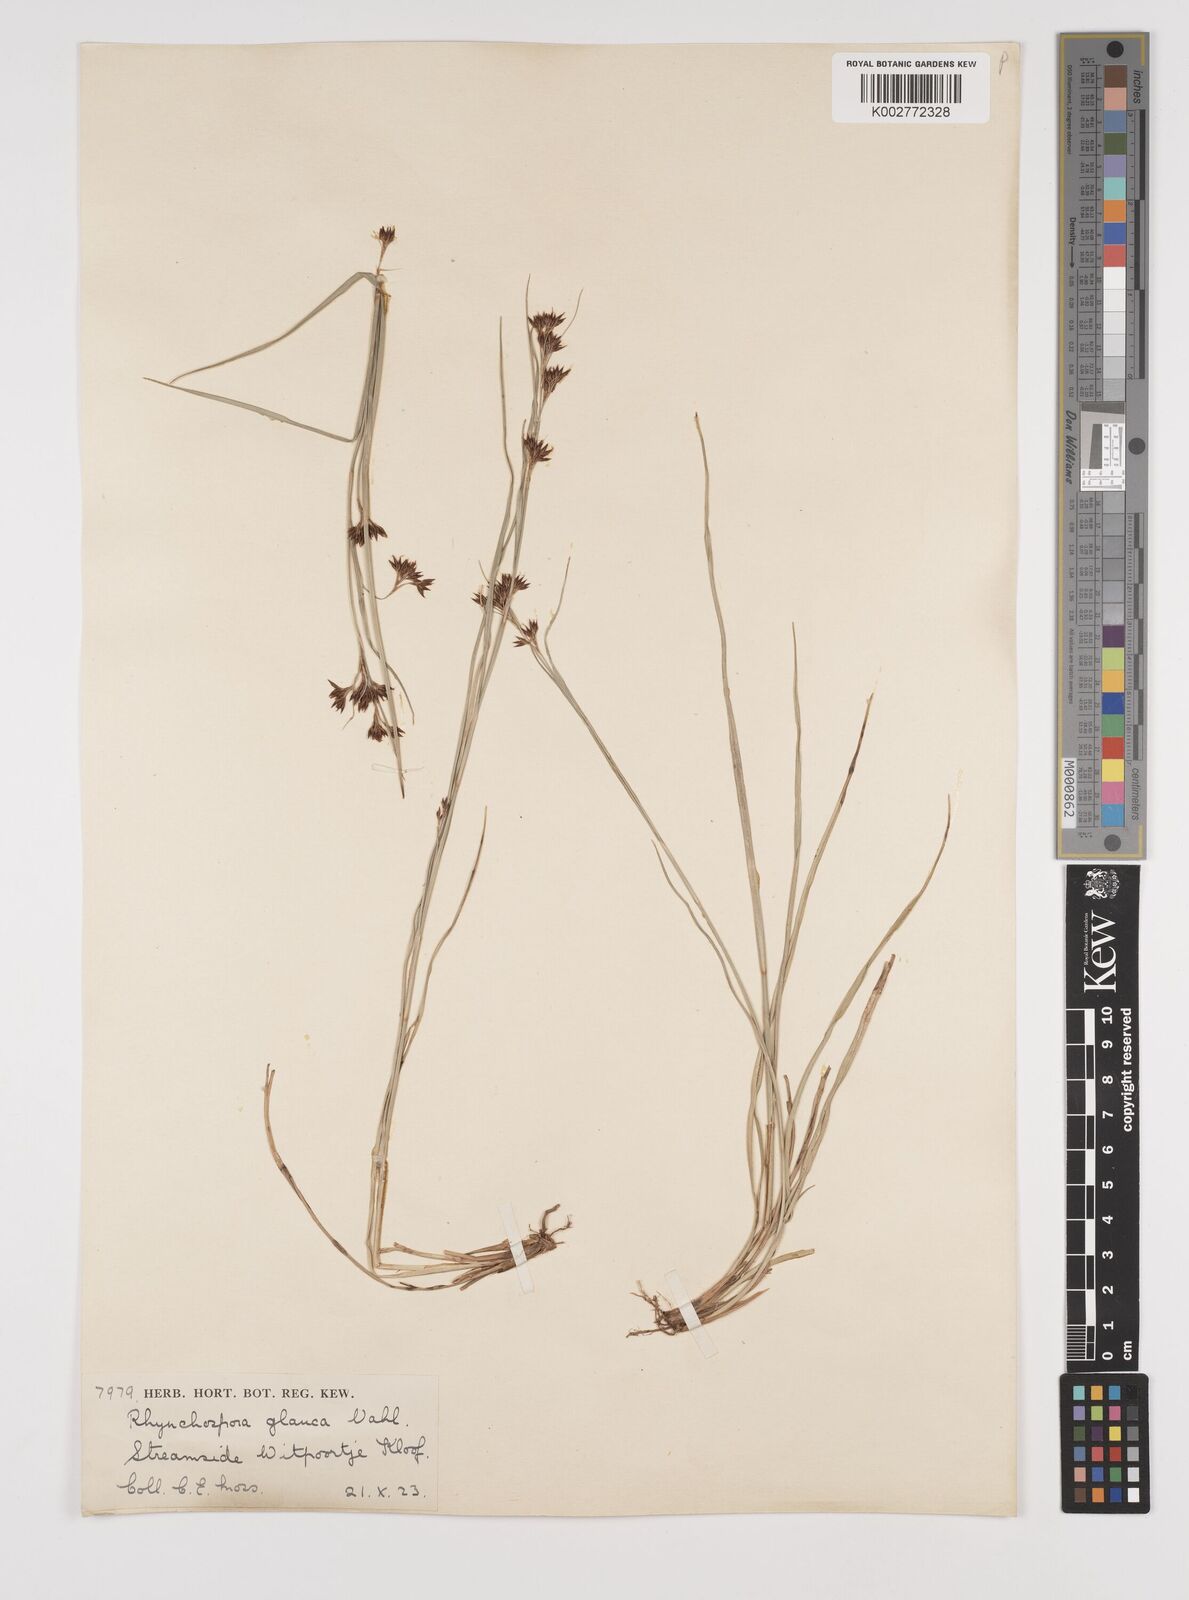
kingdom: Plantae
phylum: Tracheophyta
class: Liliopsida
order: Poales
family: Cyperaceae
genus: Rhynchospora
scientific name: Rhynchospora rugosa
